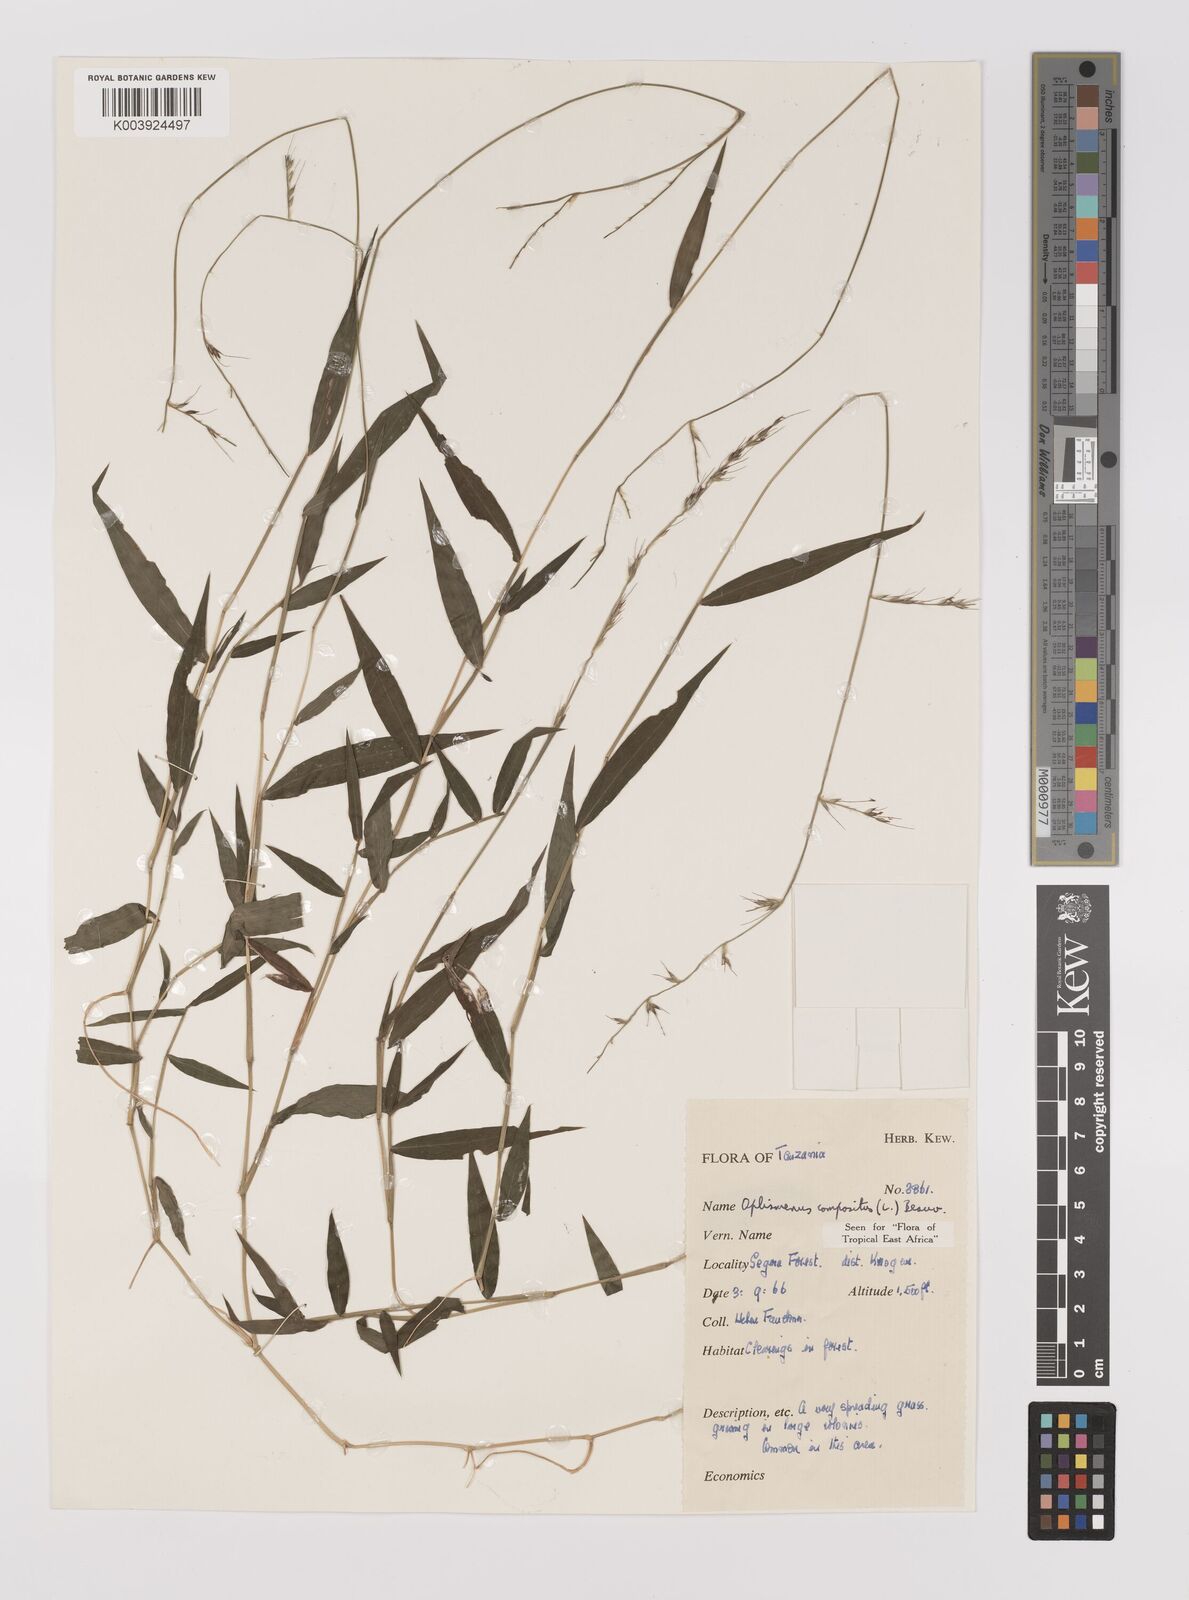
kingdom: Plantae
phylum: Tracheophyta
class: Liliopsida
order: Poales
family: Poaceae
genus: Oplismenus
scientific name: Oplismenus compositus
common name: Running mountain grass
